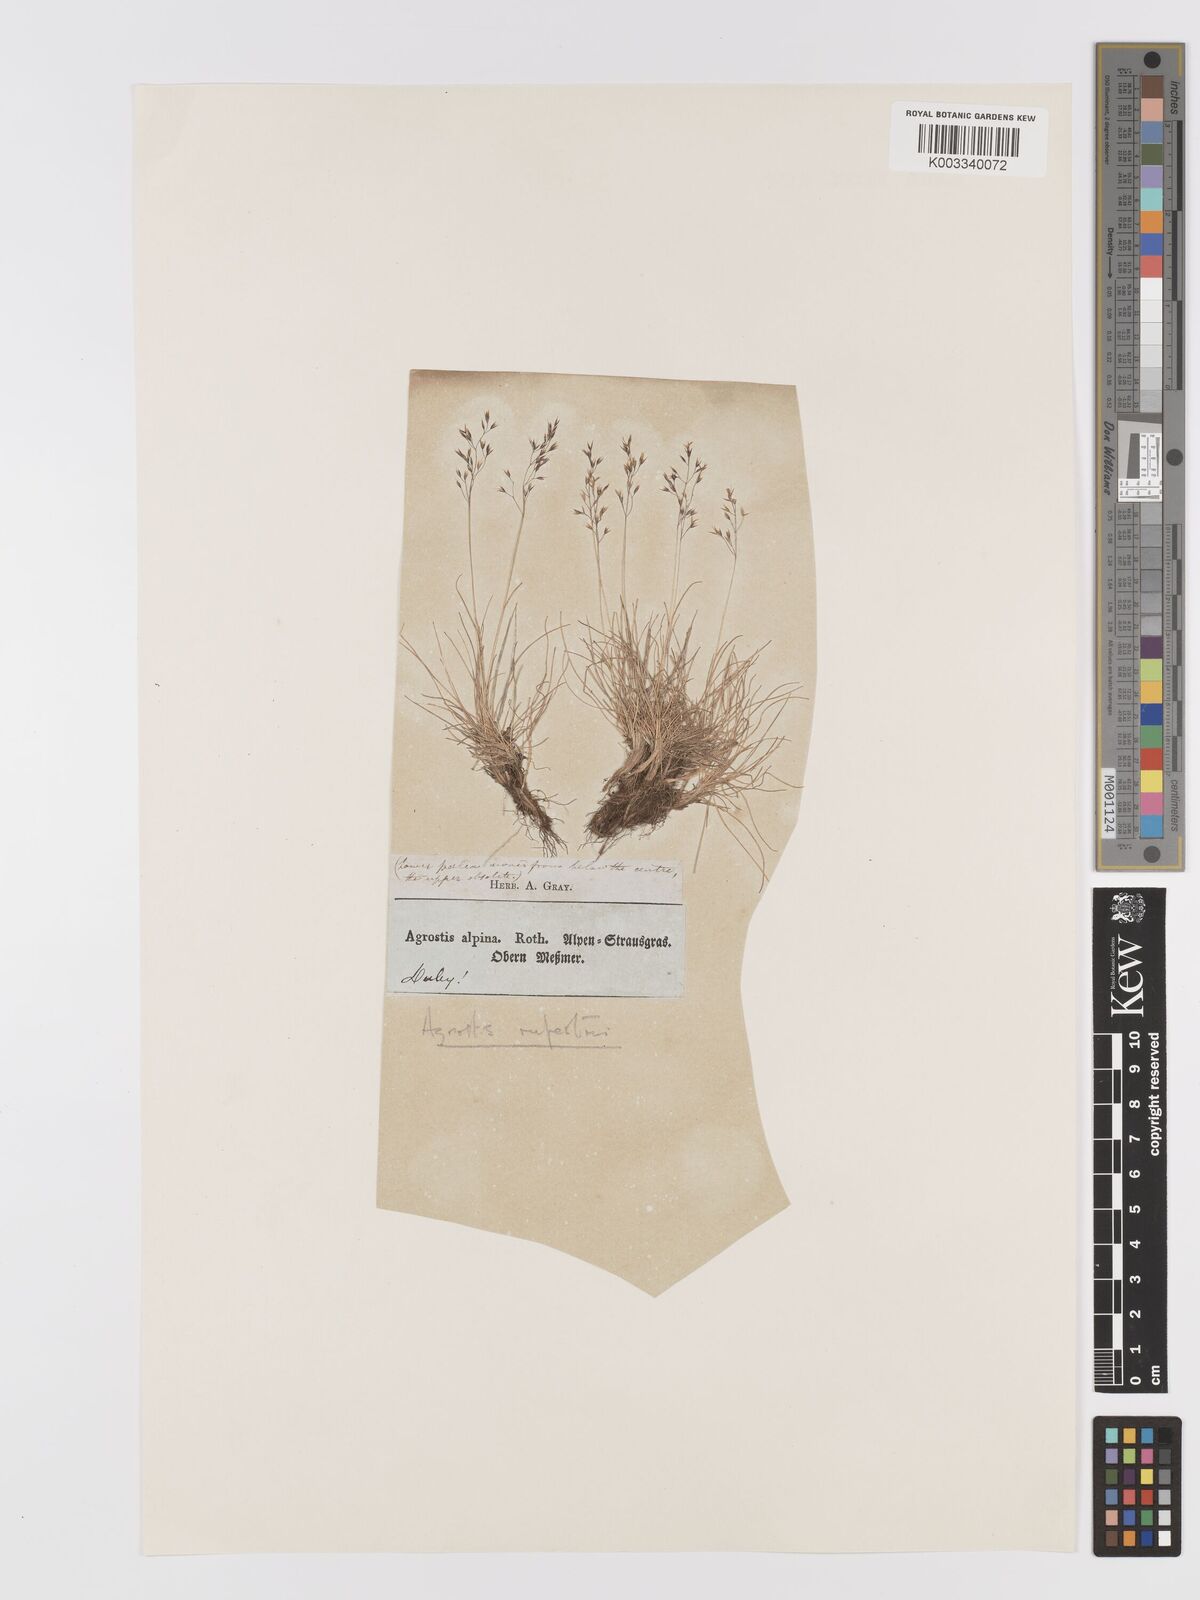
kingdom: Plantae
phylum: Tracheophyta
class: Liliopsida
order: Poales
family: Poaceae
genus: Agrostis
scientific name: Agrostis rupestris
